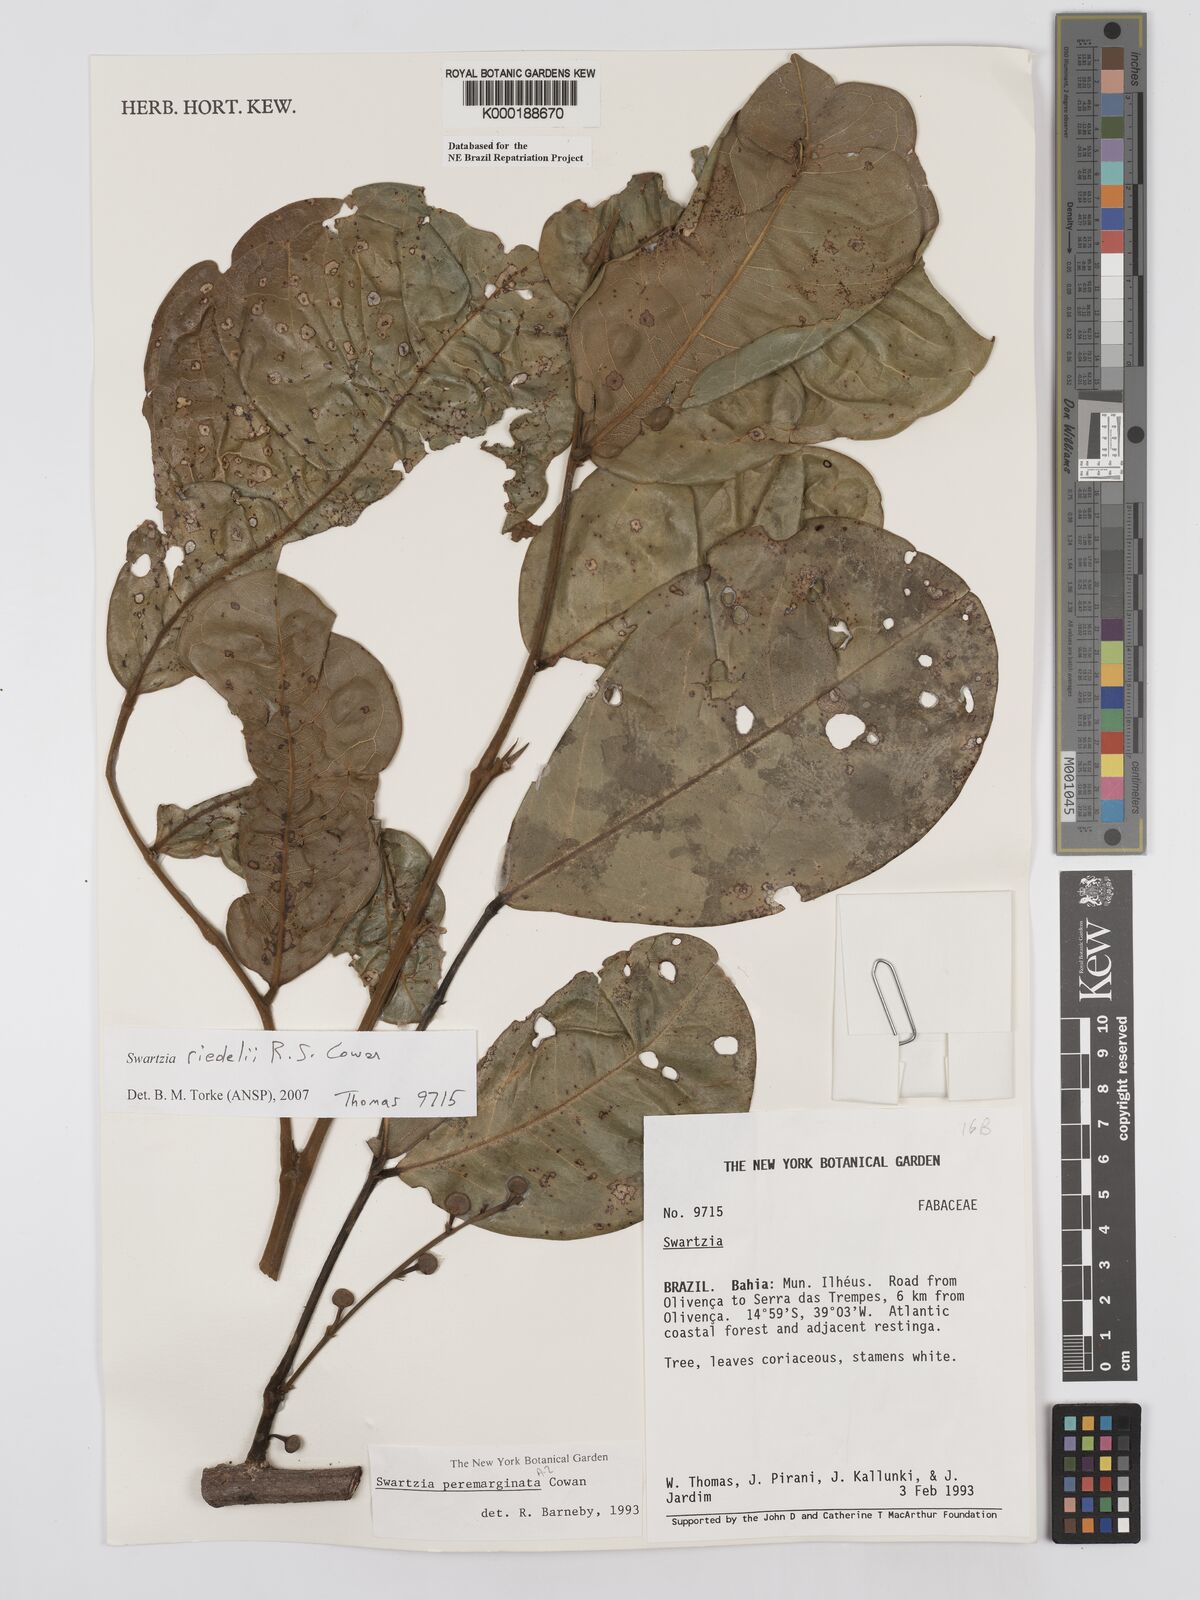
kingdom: Plantae
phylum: Tracheophyta
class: Magnoliopsida
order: Fabales
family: Fabaceae
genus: Swartzia
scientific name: Swartzia riedelii
